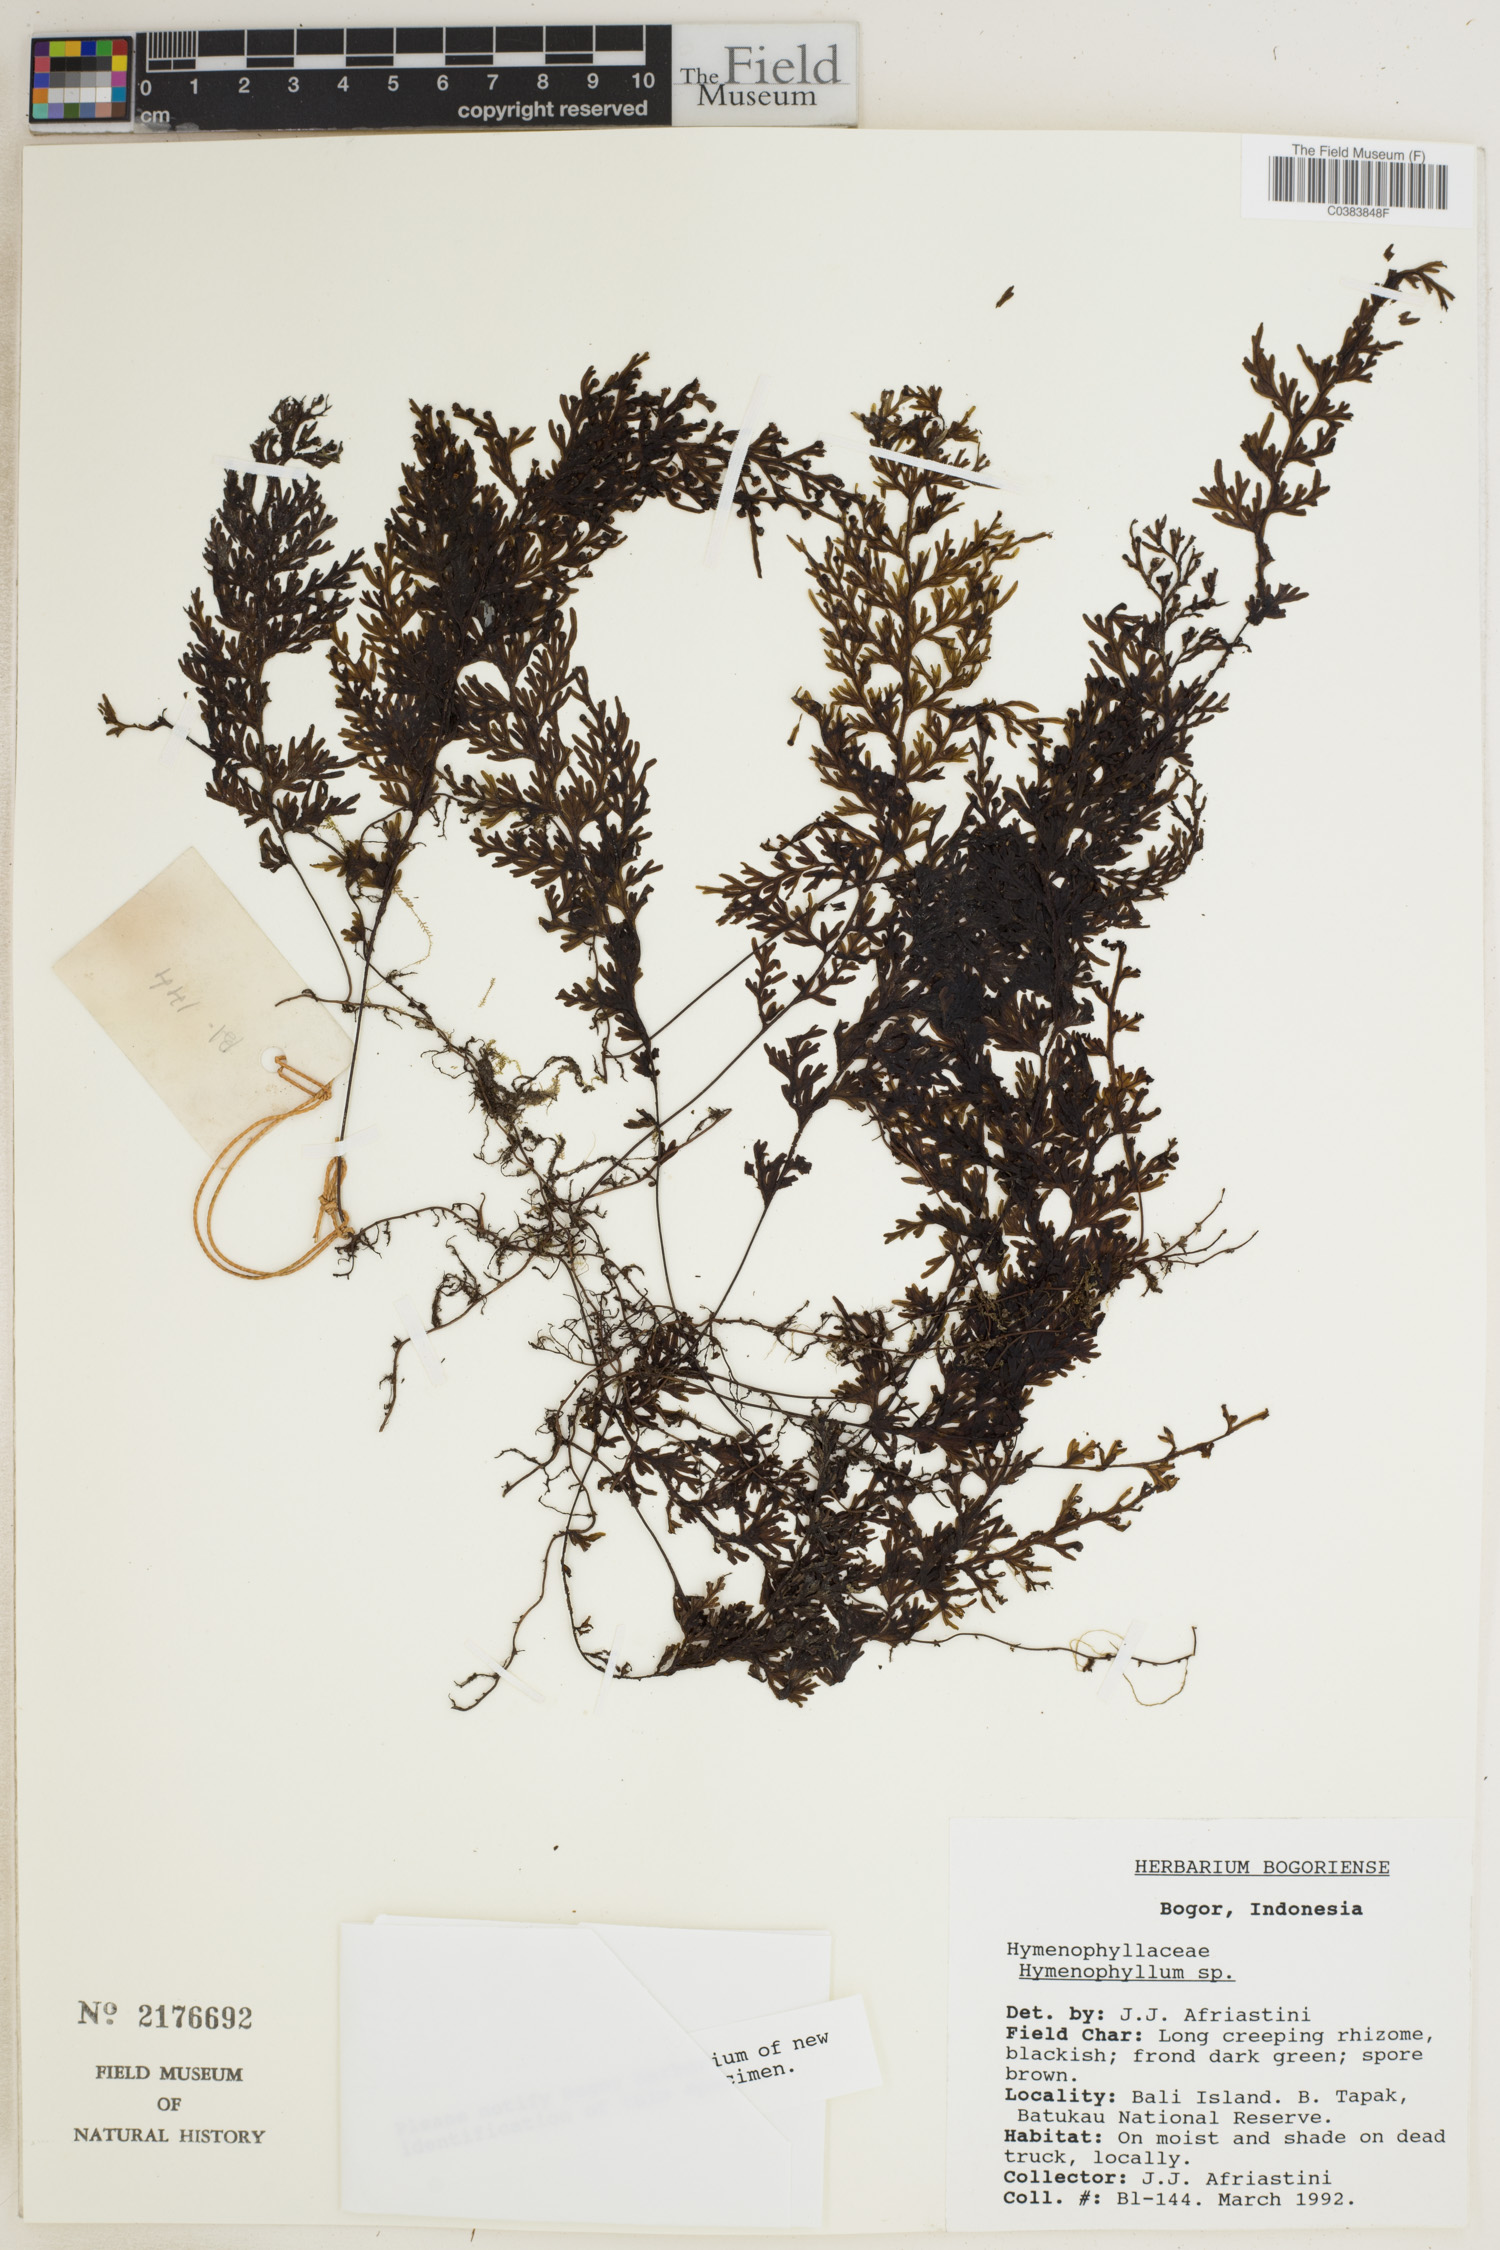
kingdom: Plantae
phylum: Tracheophyta
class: Polypodiopsida
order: Hymenophyllales
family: Hymenophyllaceae
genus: Hymenophyllum
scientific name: Hymenophyllum
